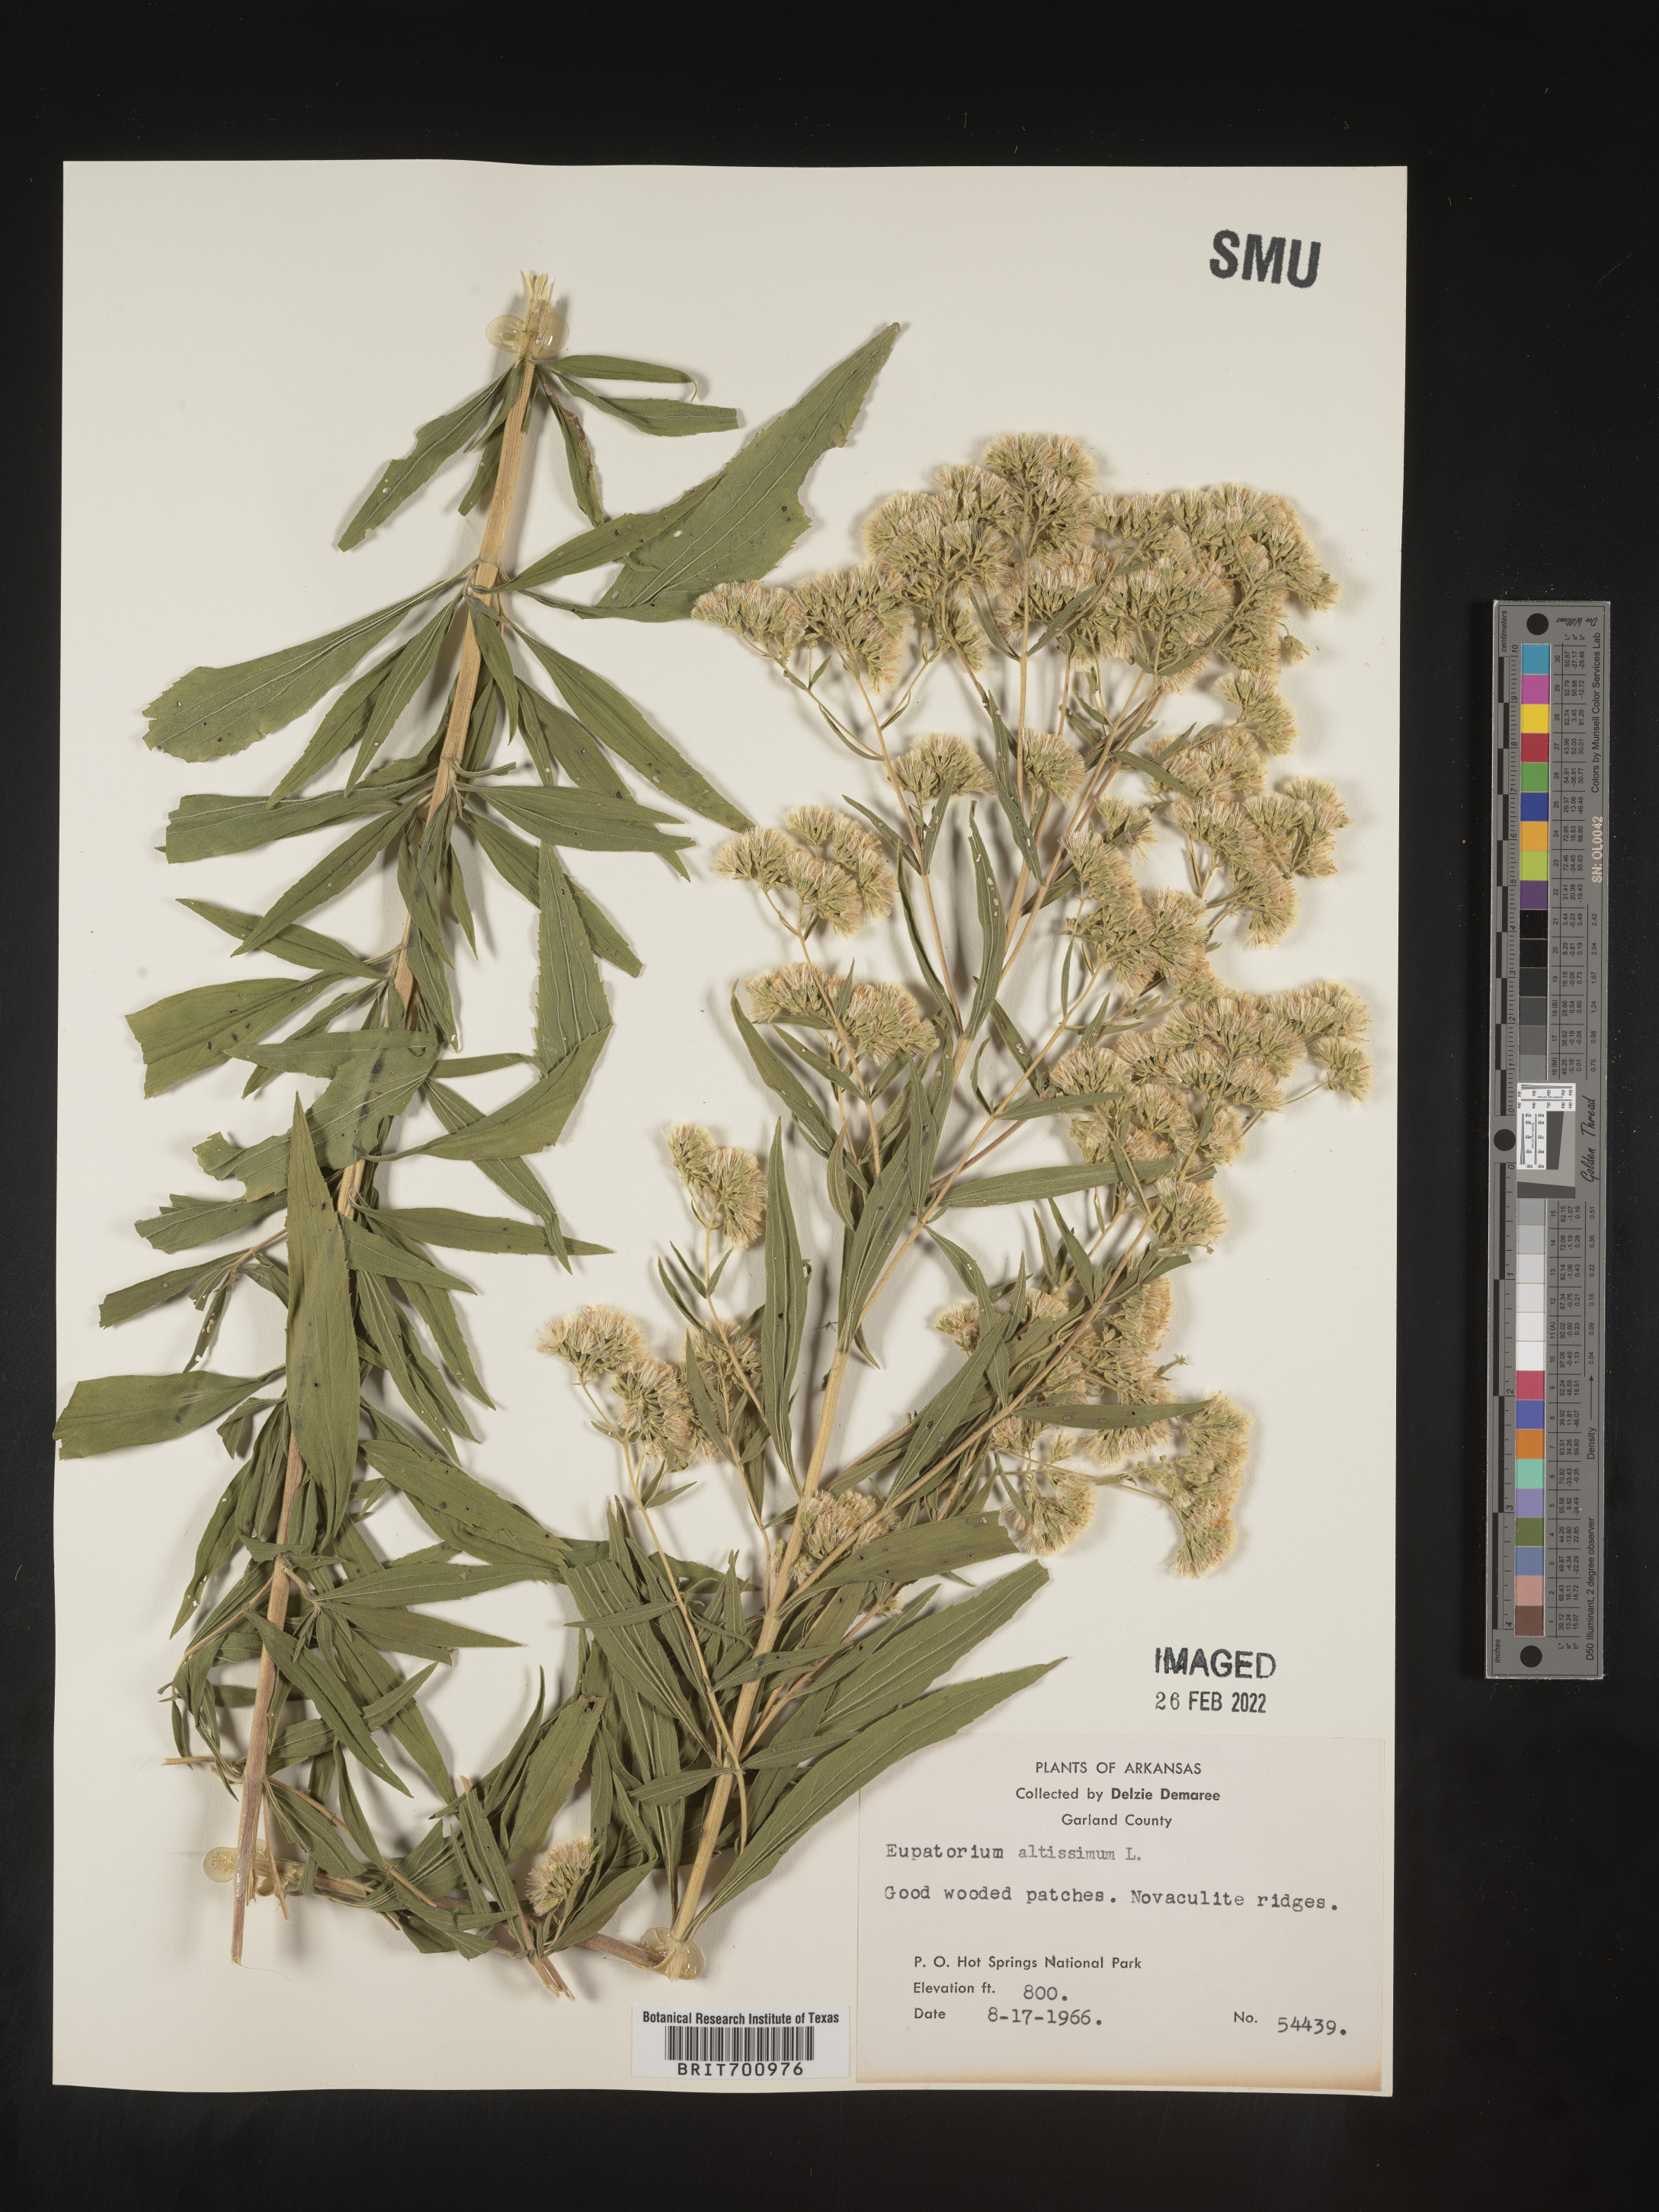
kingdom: Plantae
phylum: Tracheophyta
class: Magnoliopsida
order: Asterales
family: Asteraceae
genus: Eupatorium
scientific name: Eupatorium altissimum
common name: Tall thoroughwort
